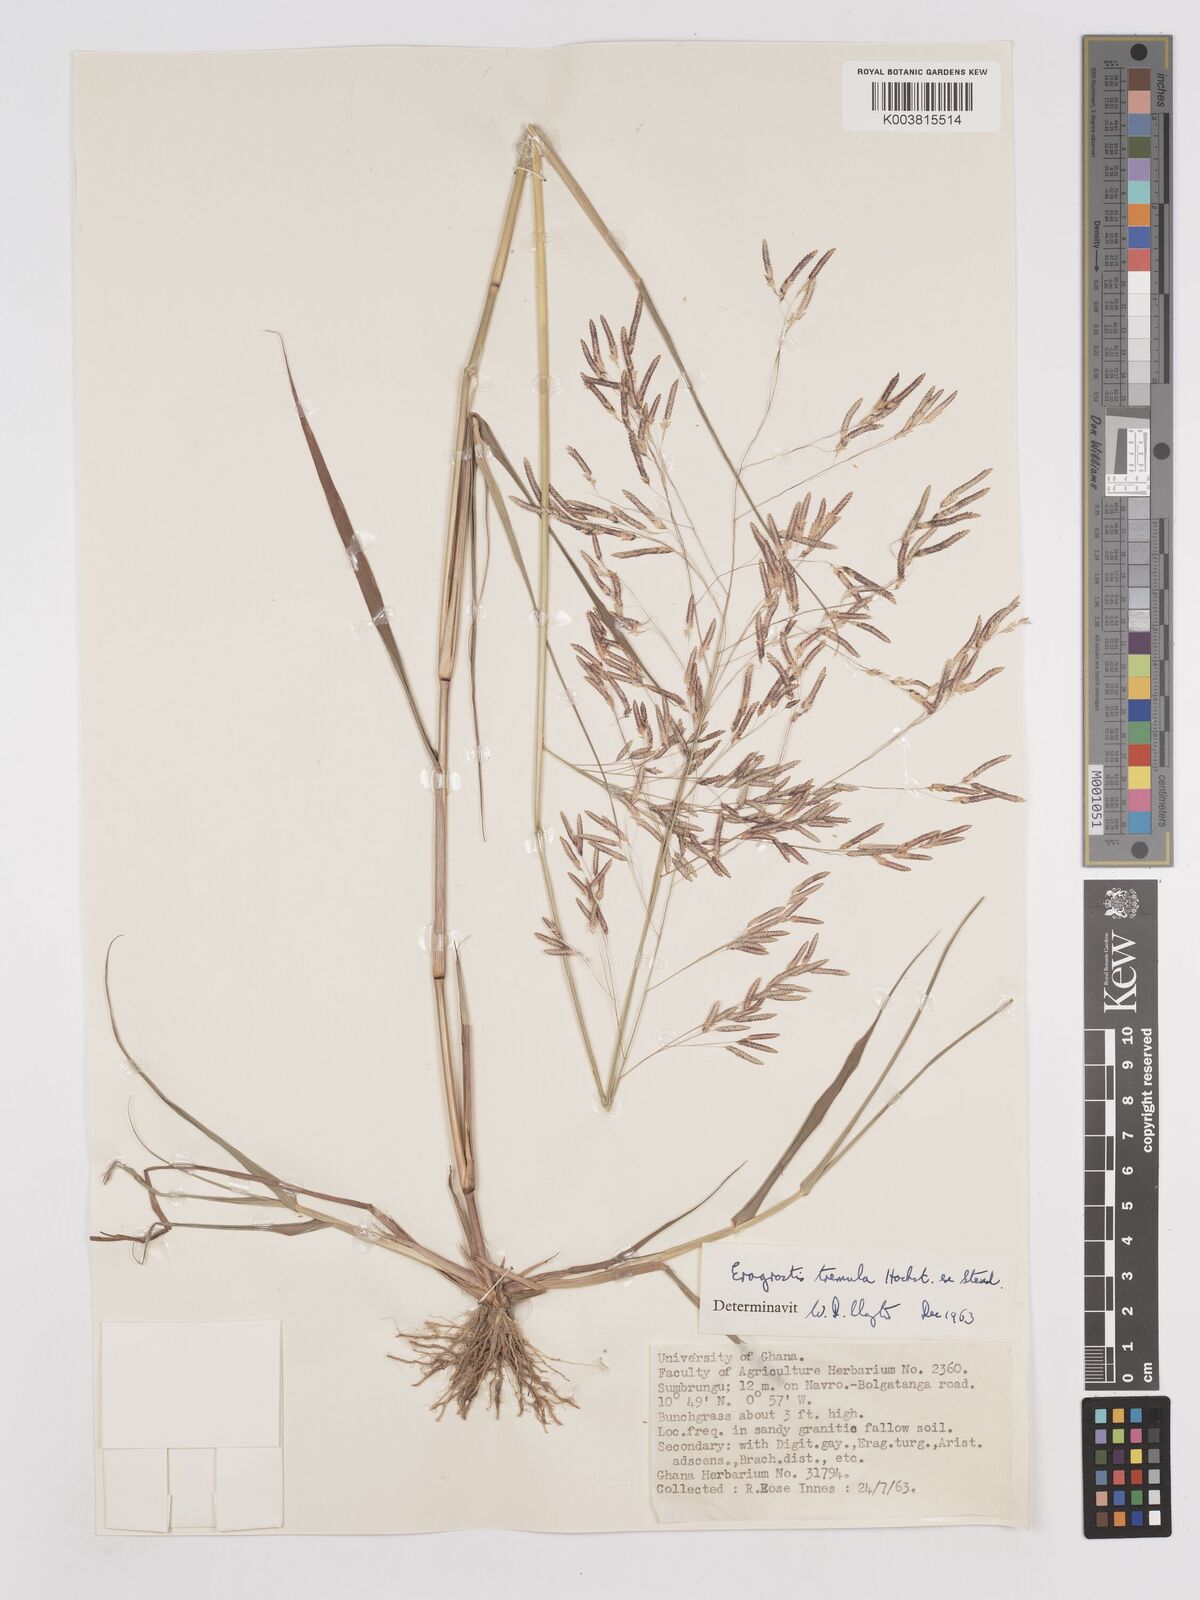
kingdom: Plantae
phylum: Tracheophyta
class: Liliopsida
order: Poales
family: Poaceae
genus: Eragrostis
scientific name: Eragrostis tremula
